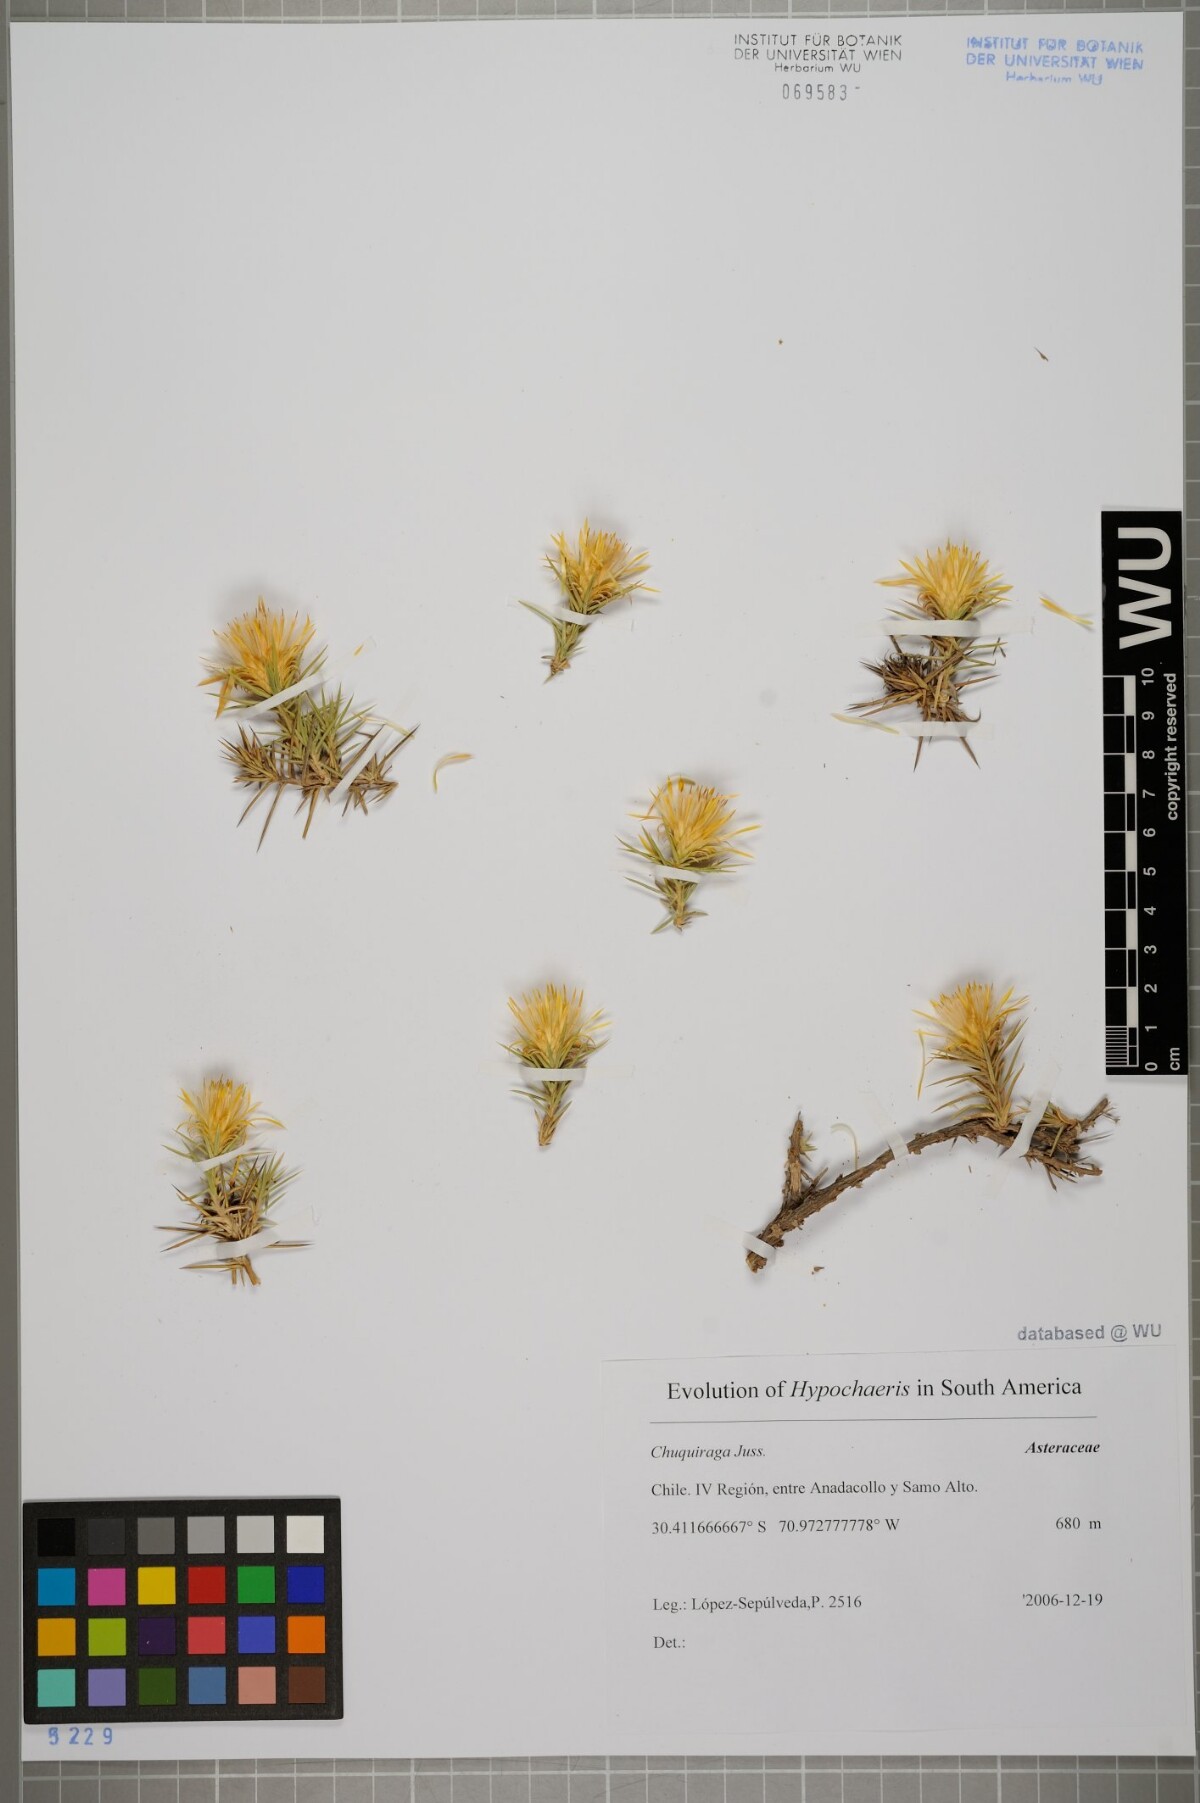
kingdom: Plantae
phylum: Tracheophyta
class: Magnoliopsida
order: Asterales
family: Asteraceae
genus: Chuquiraga
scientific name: Chuquiraga
